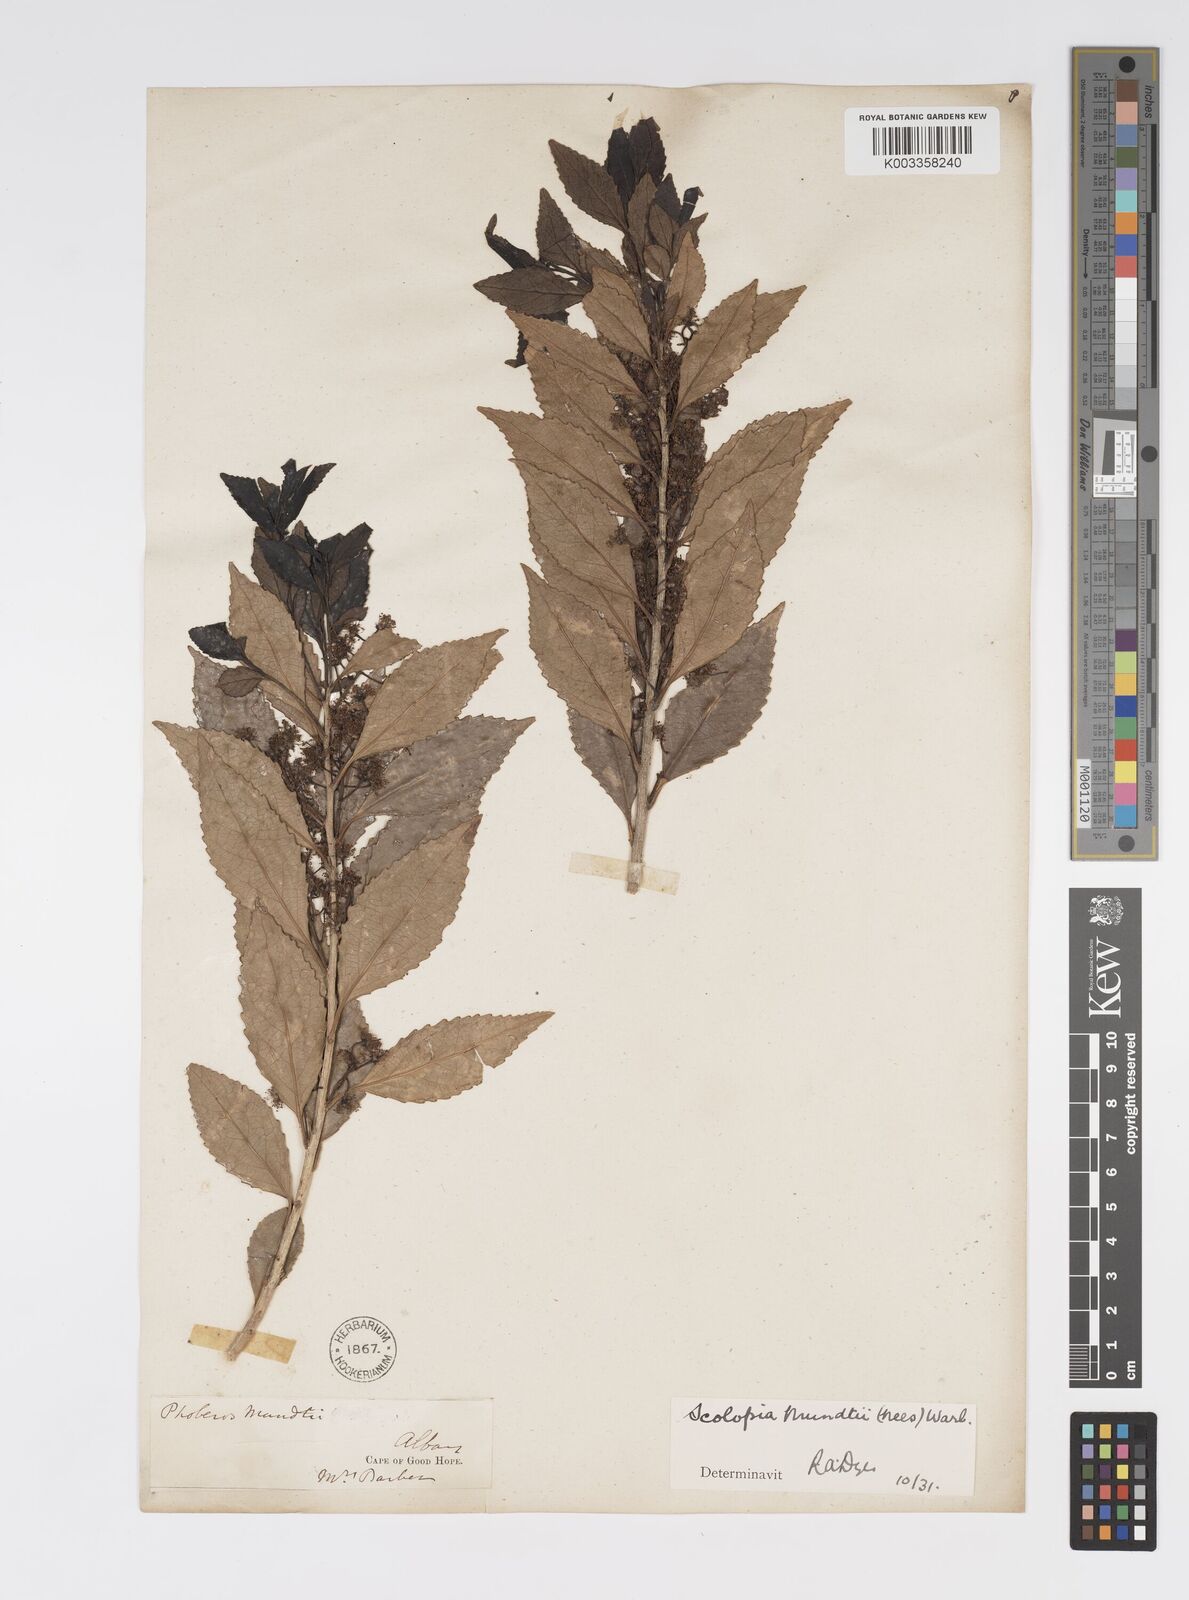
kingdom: Plantae
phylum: Tracheophyta
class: Magnoliopsida
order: Malpighiales
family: Salicaceae
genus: Scolopia
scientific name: Scolopia mundii
